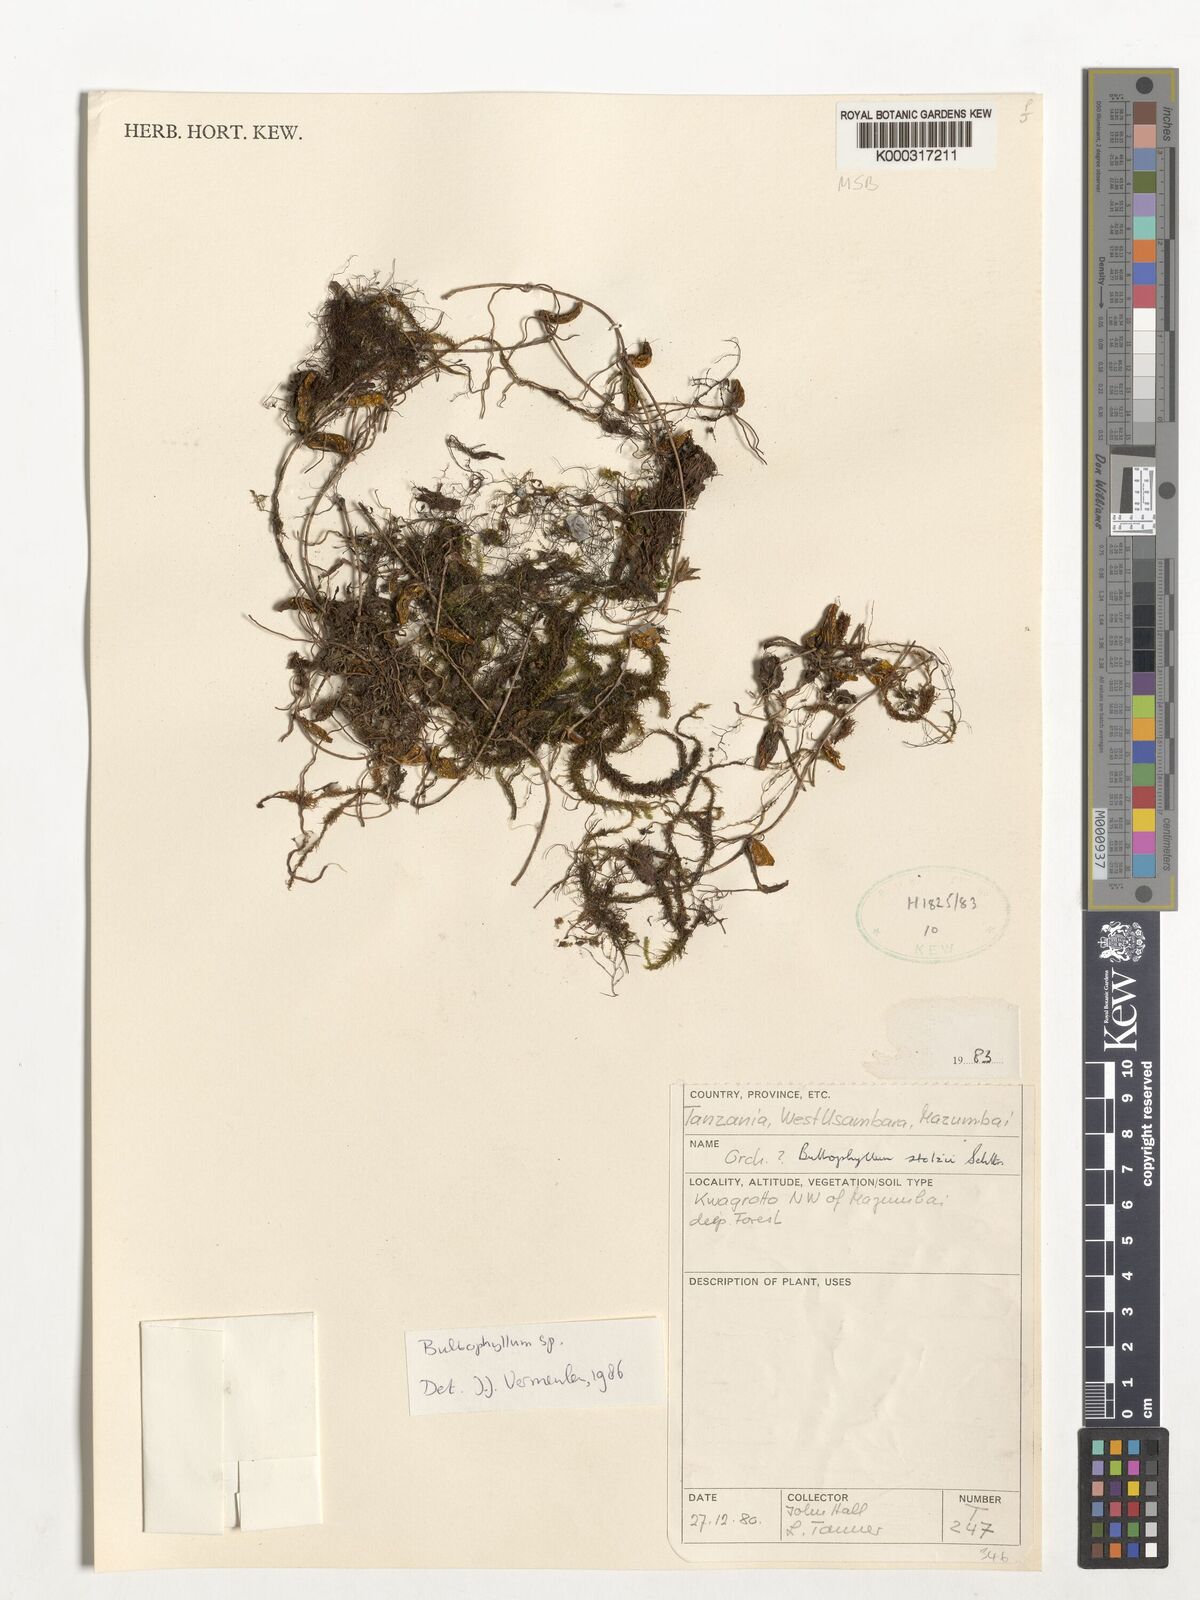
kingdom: Plantae
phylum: Tracheophyta
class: Liliopsida
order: Asparagales
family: Orchidaceae
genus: Bulbophyllum
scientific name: Bulbophyllum stolzii
